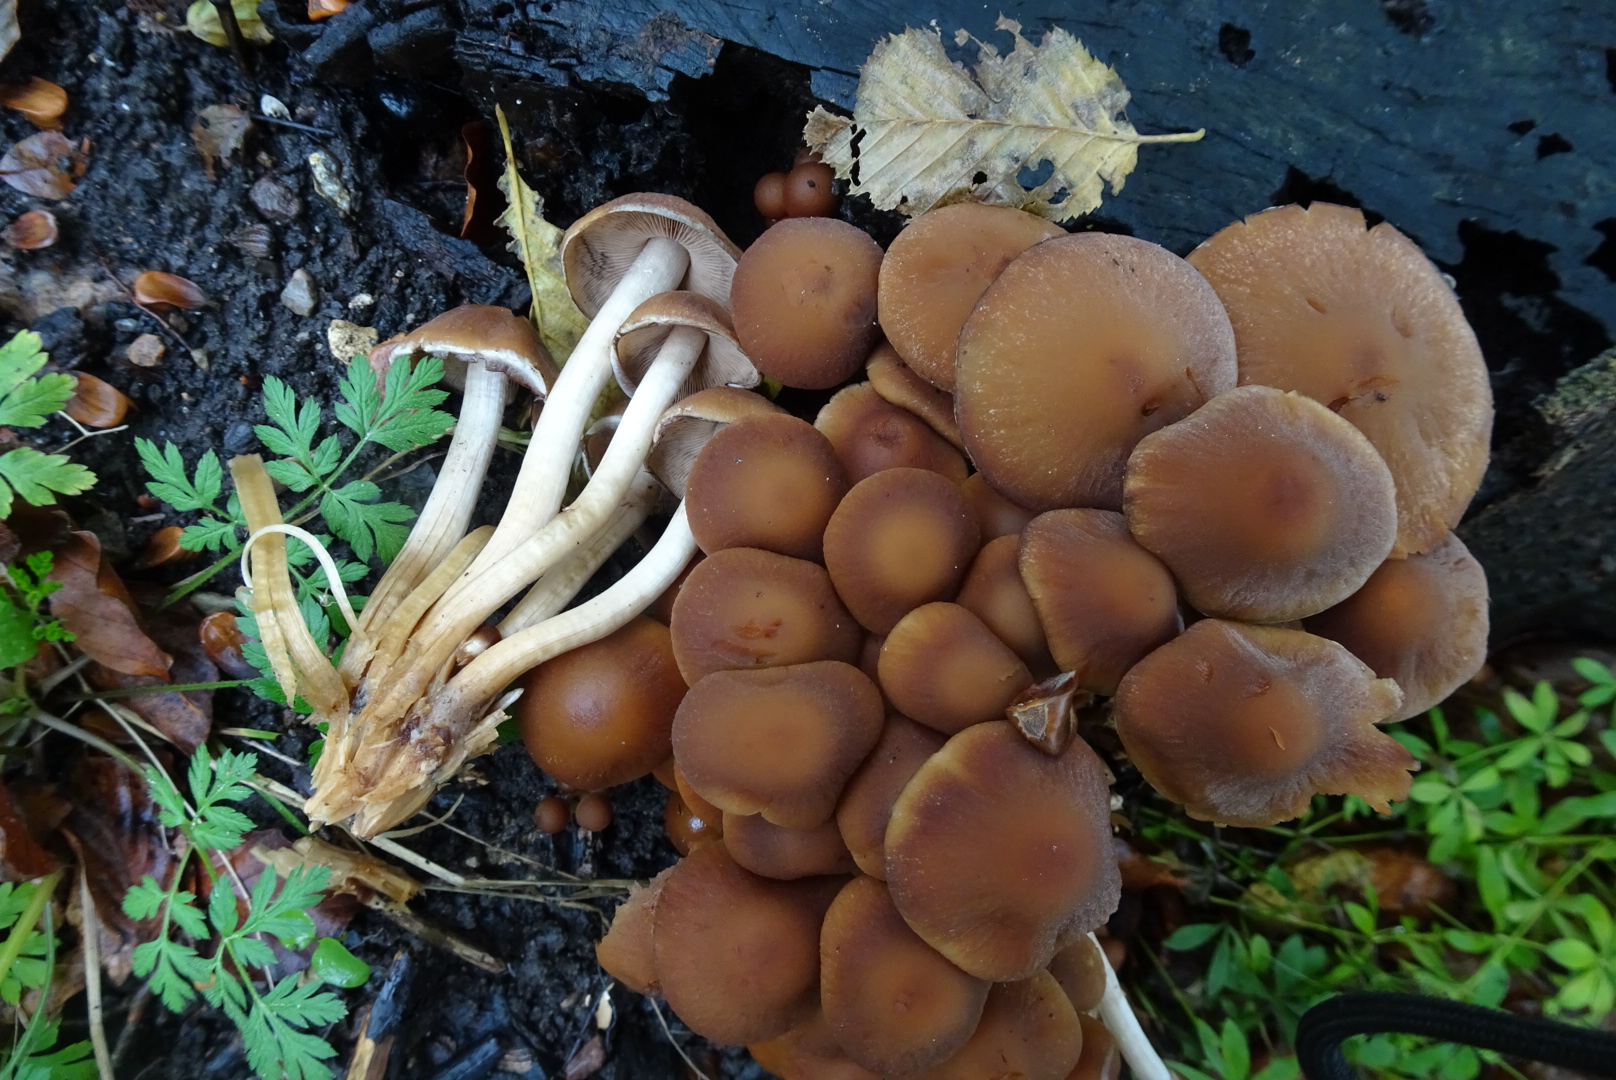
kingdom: Fungi
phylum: Basidiomycota
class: Agaricomycetes
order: Agaricales
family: Psathyrellaceae
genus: Psathyrella
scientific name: Psathyrella piluliformis
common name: lysstokket mørkhat
